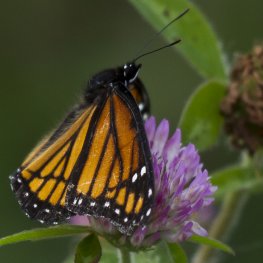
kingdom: Animalia
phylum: Arthropoda
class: Insecta
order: Lepidoptera
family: Nymphalidae
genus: Limenitis
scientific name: Limenitis archippus
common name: Viceroy
